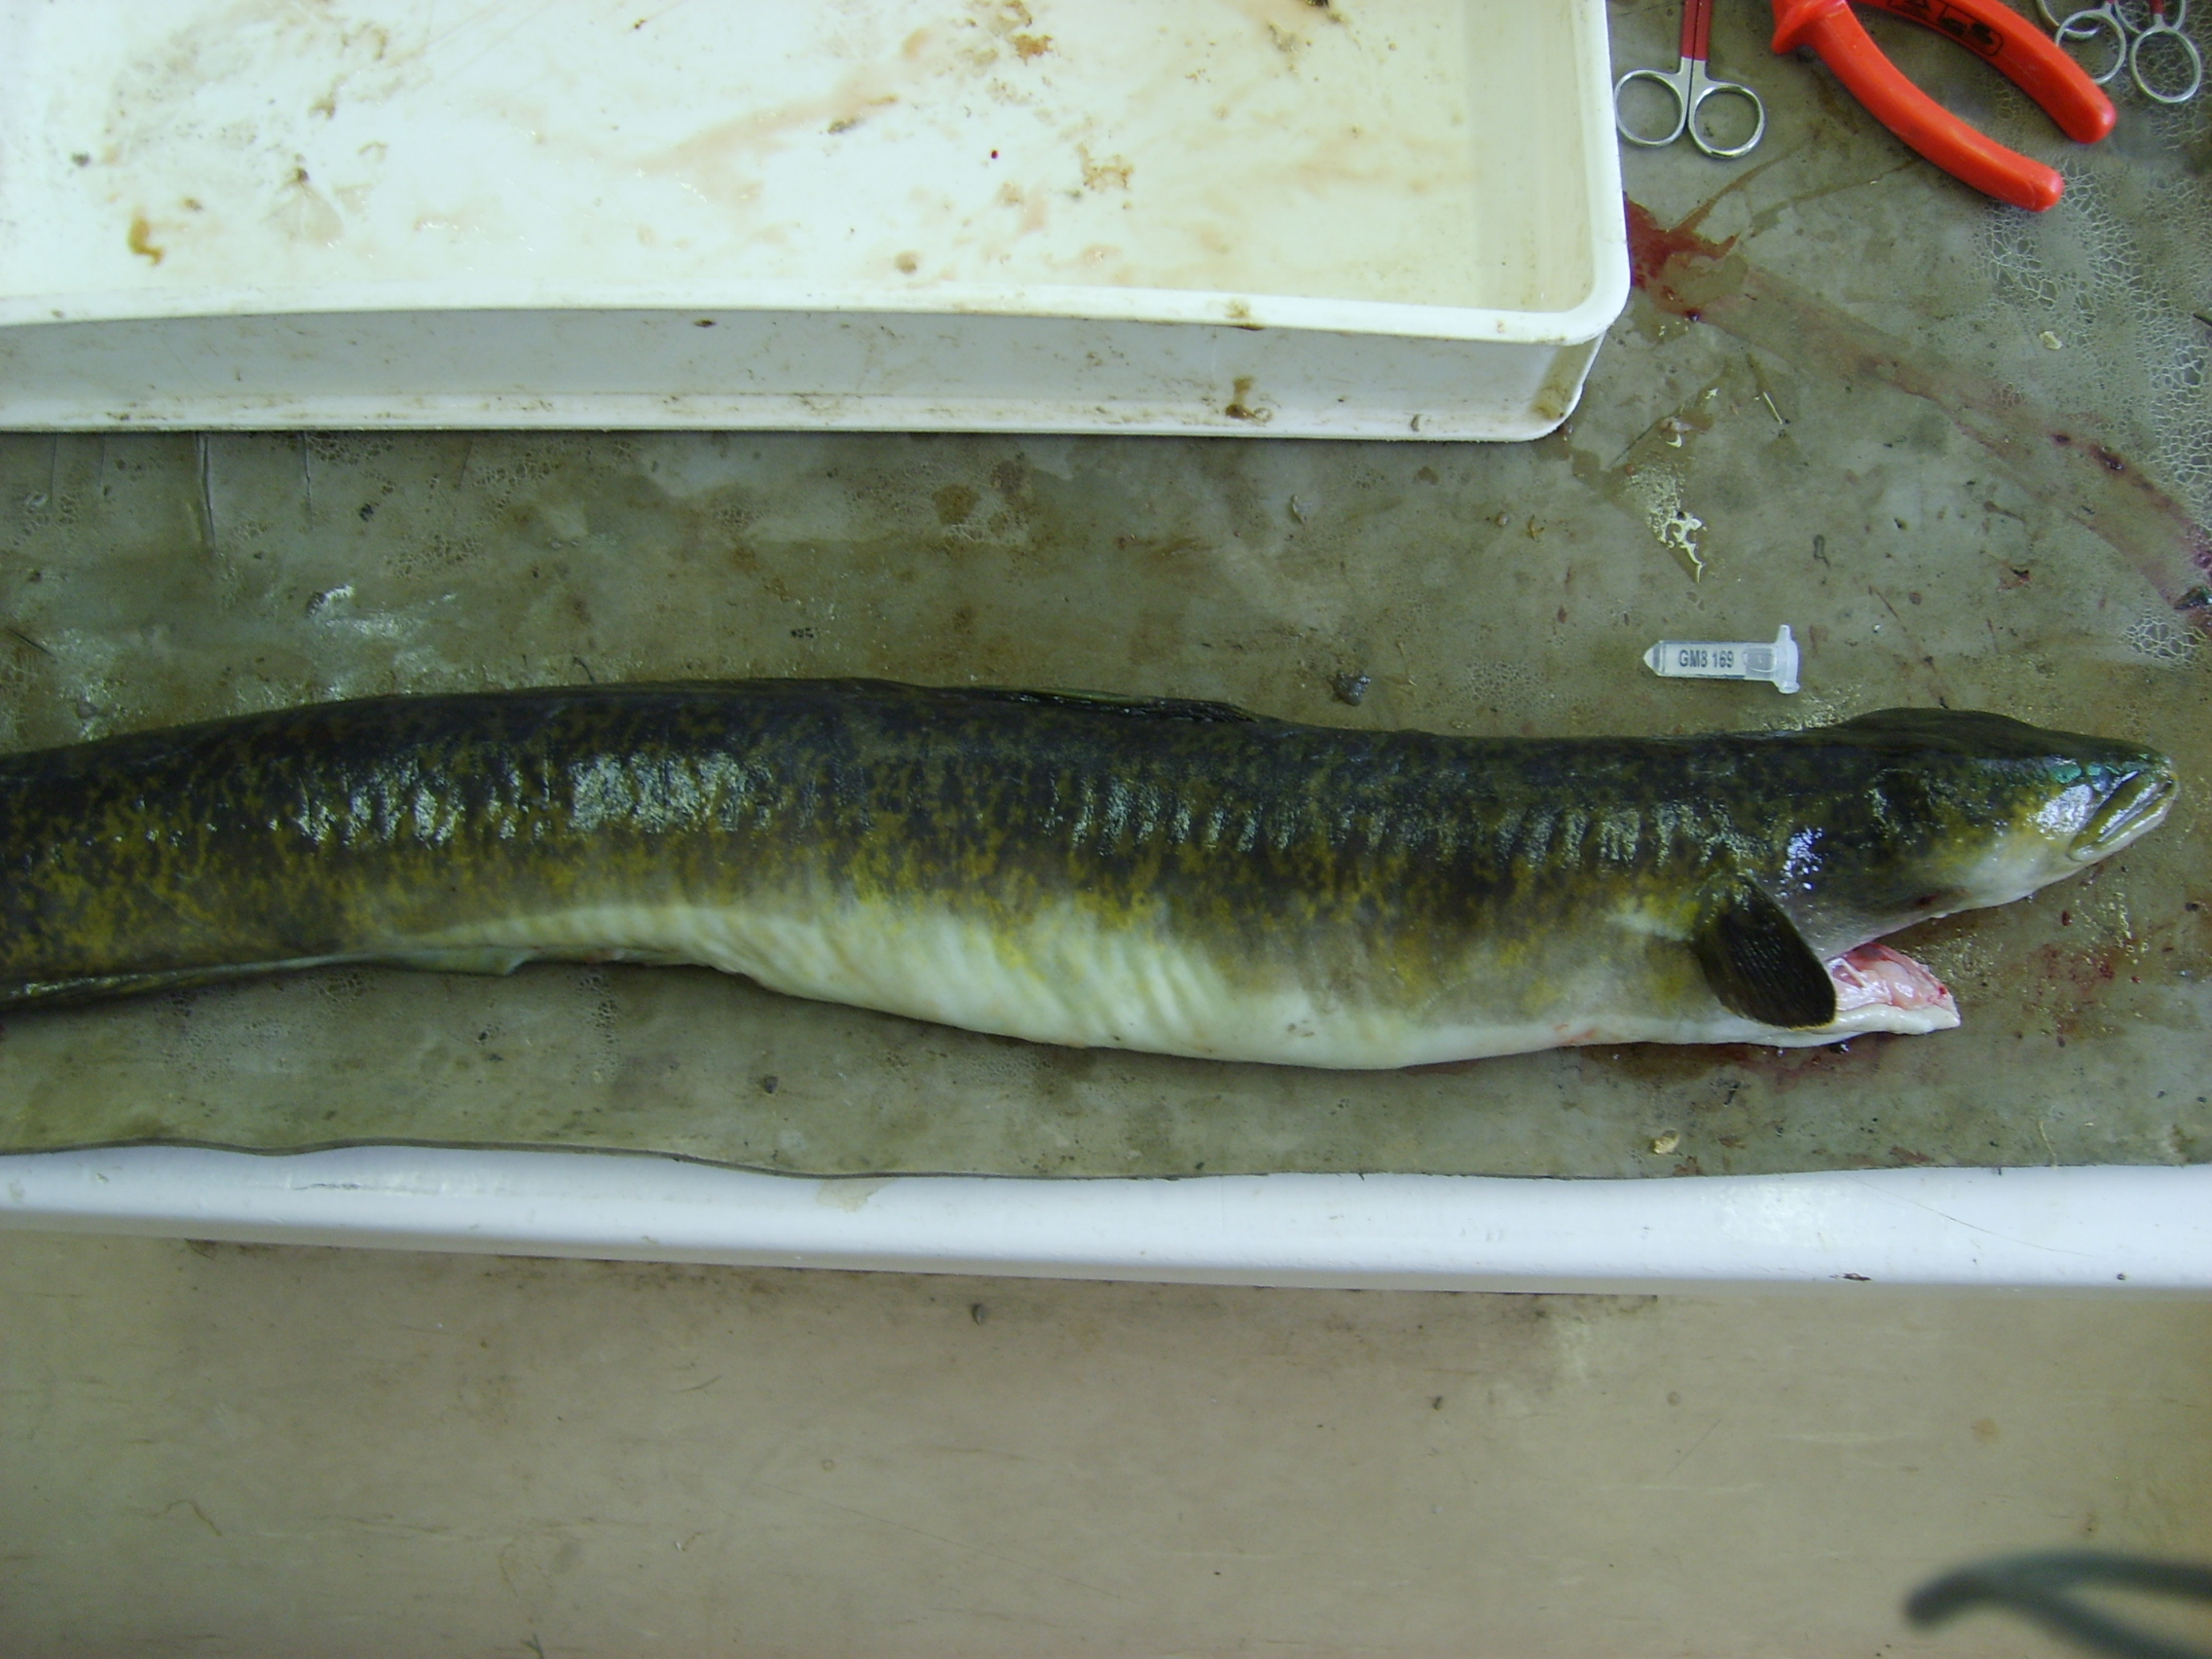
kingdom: Animalia
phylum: Chordata
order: Anguilliformes
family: Anguillidae
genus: Anguilla
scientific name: Anguilla marmorata
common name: Giant mottled eel
